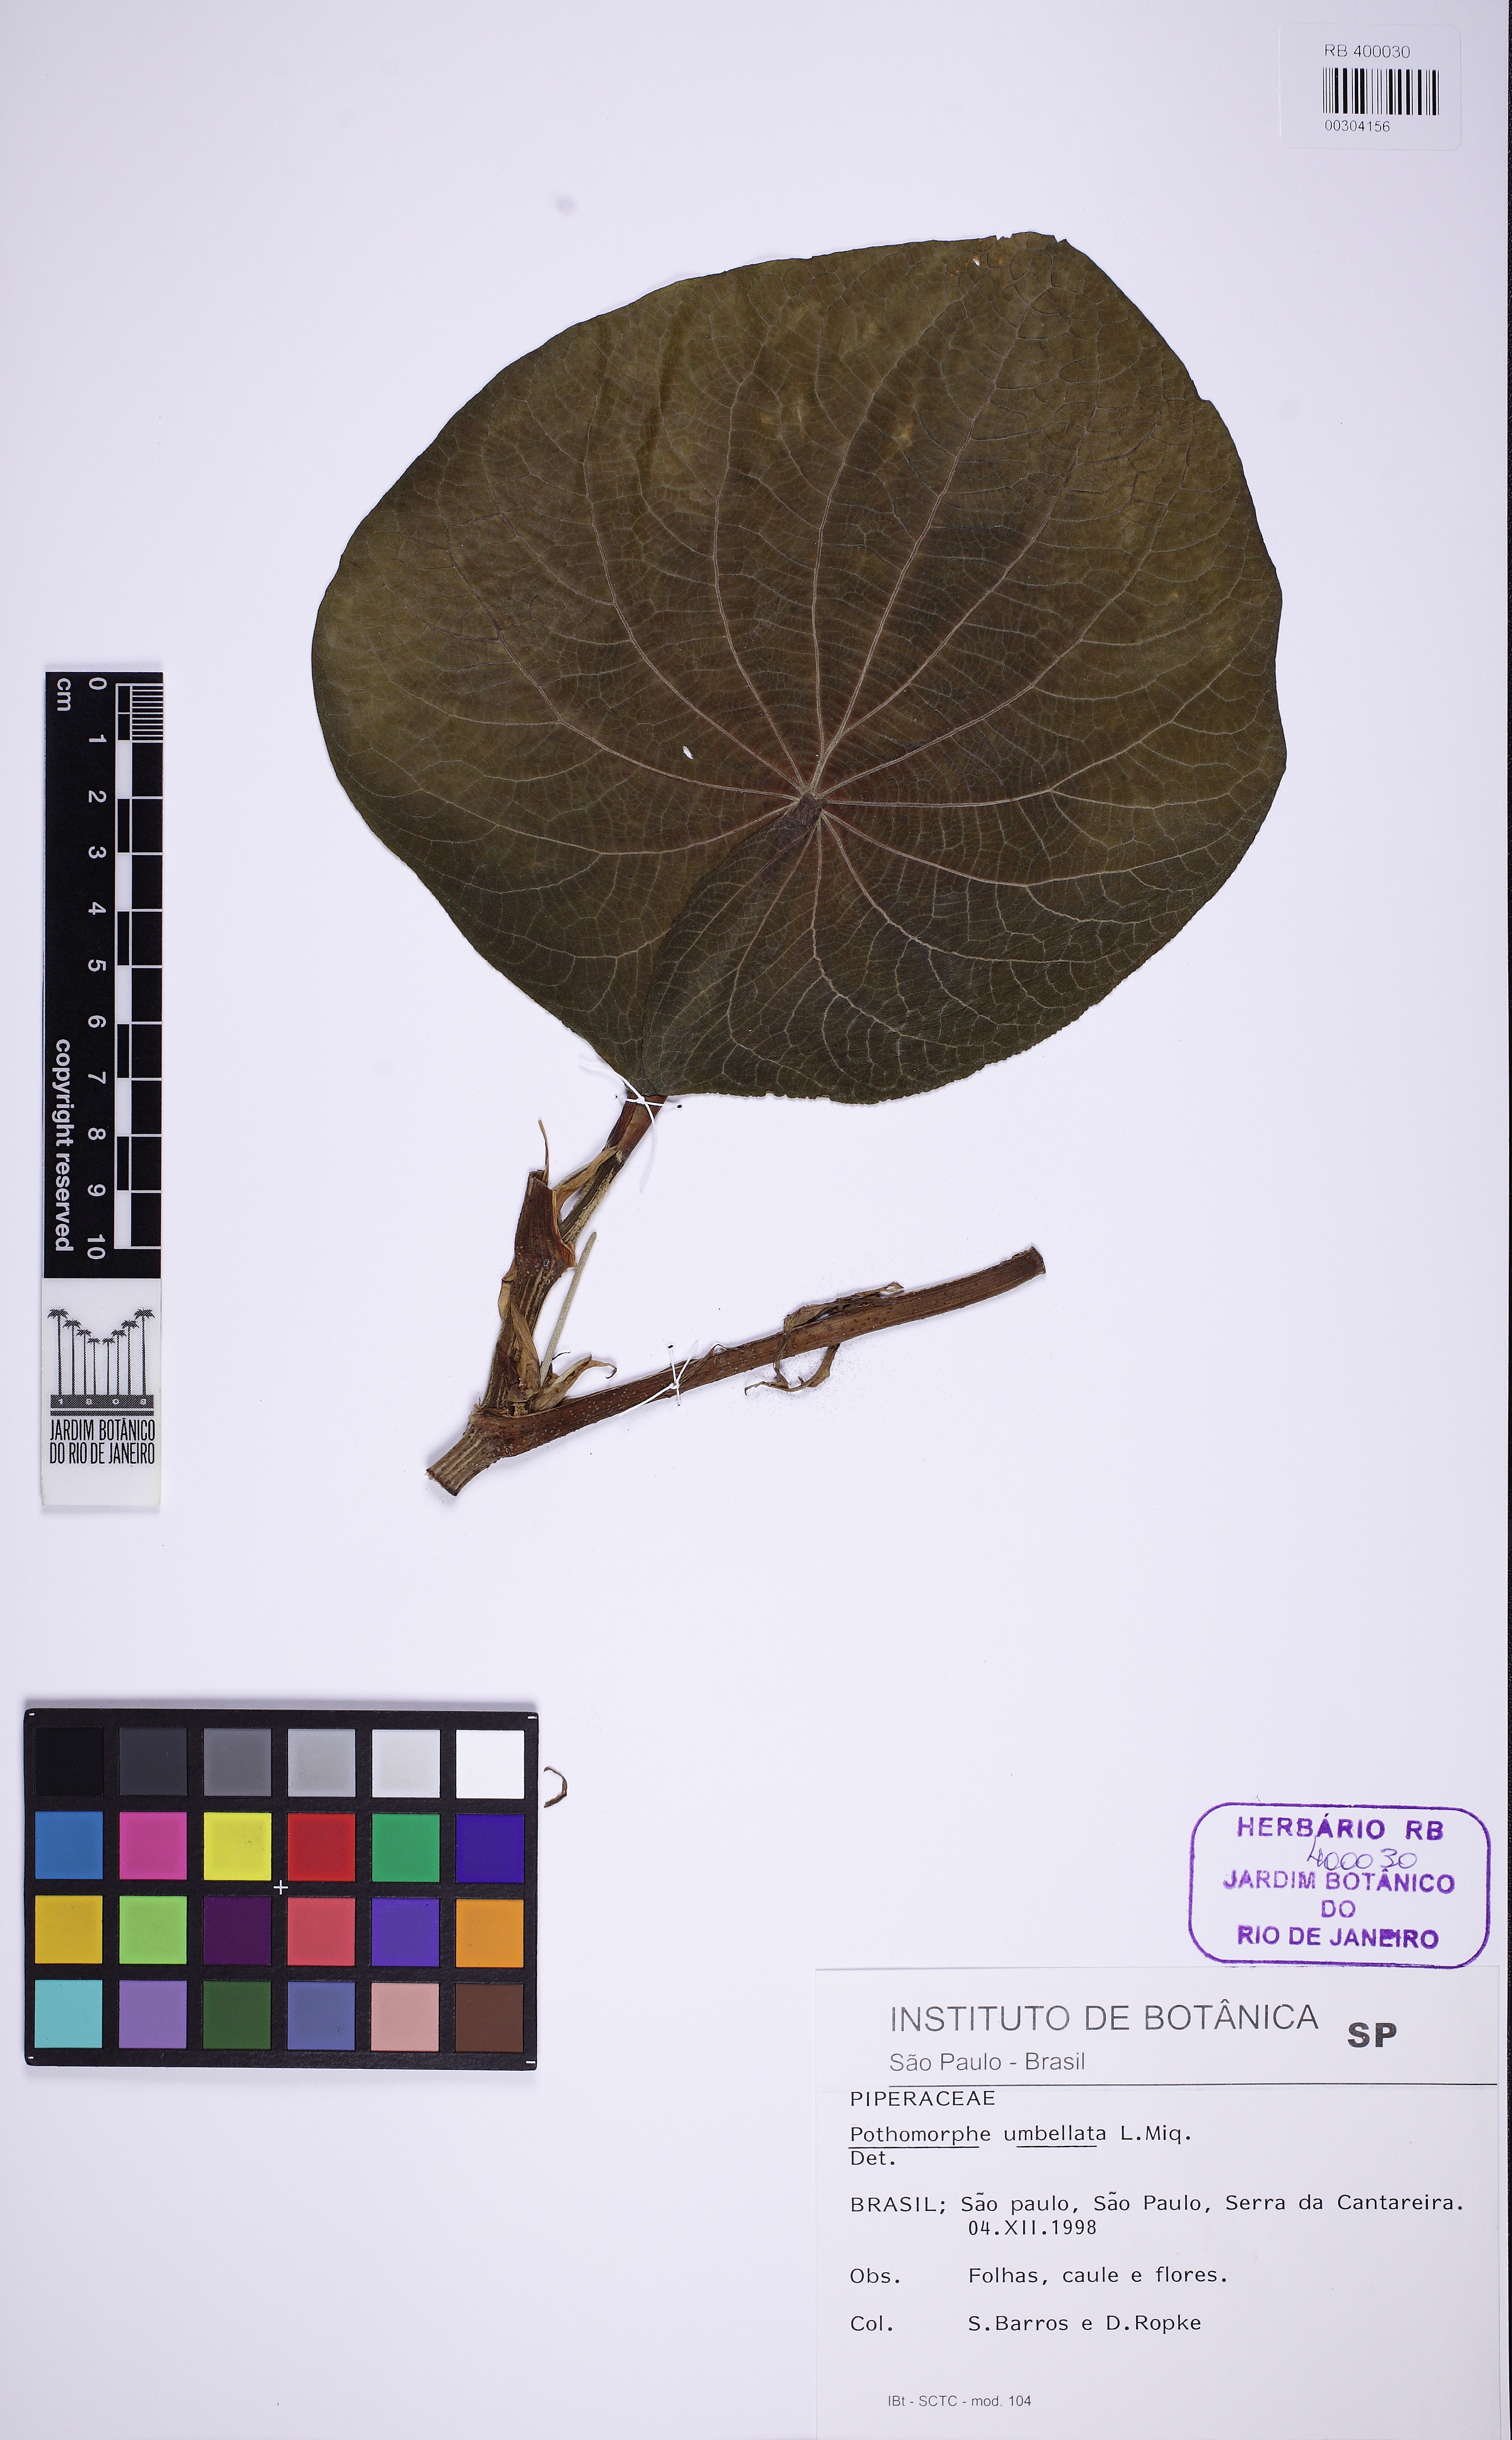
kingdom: Plantae
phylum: Tracheophyta
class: Magnoliopsida
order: Piperales
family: Piperaceae
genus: Piper
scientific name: Piper umbellatum
